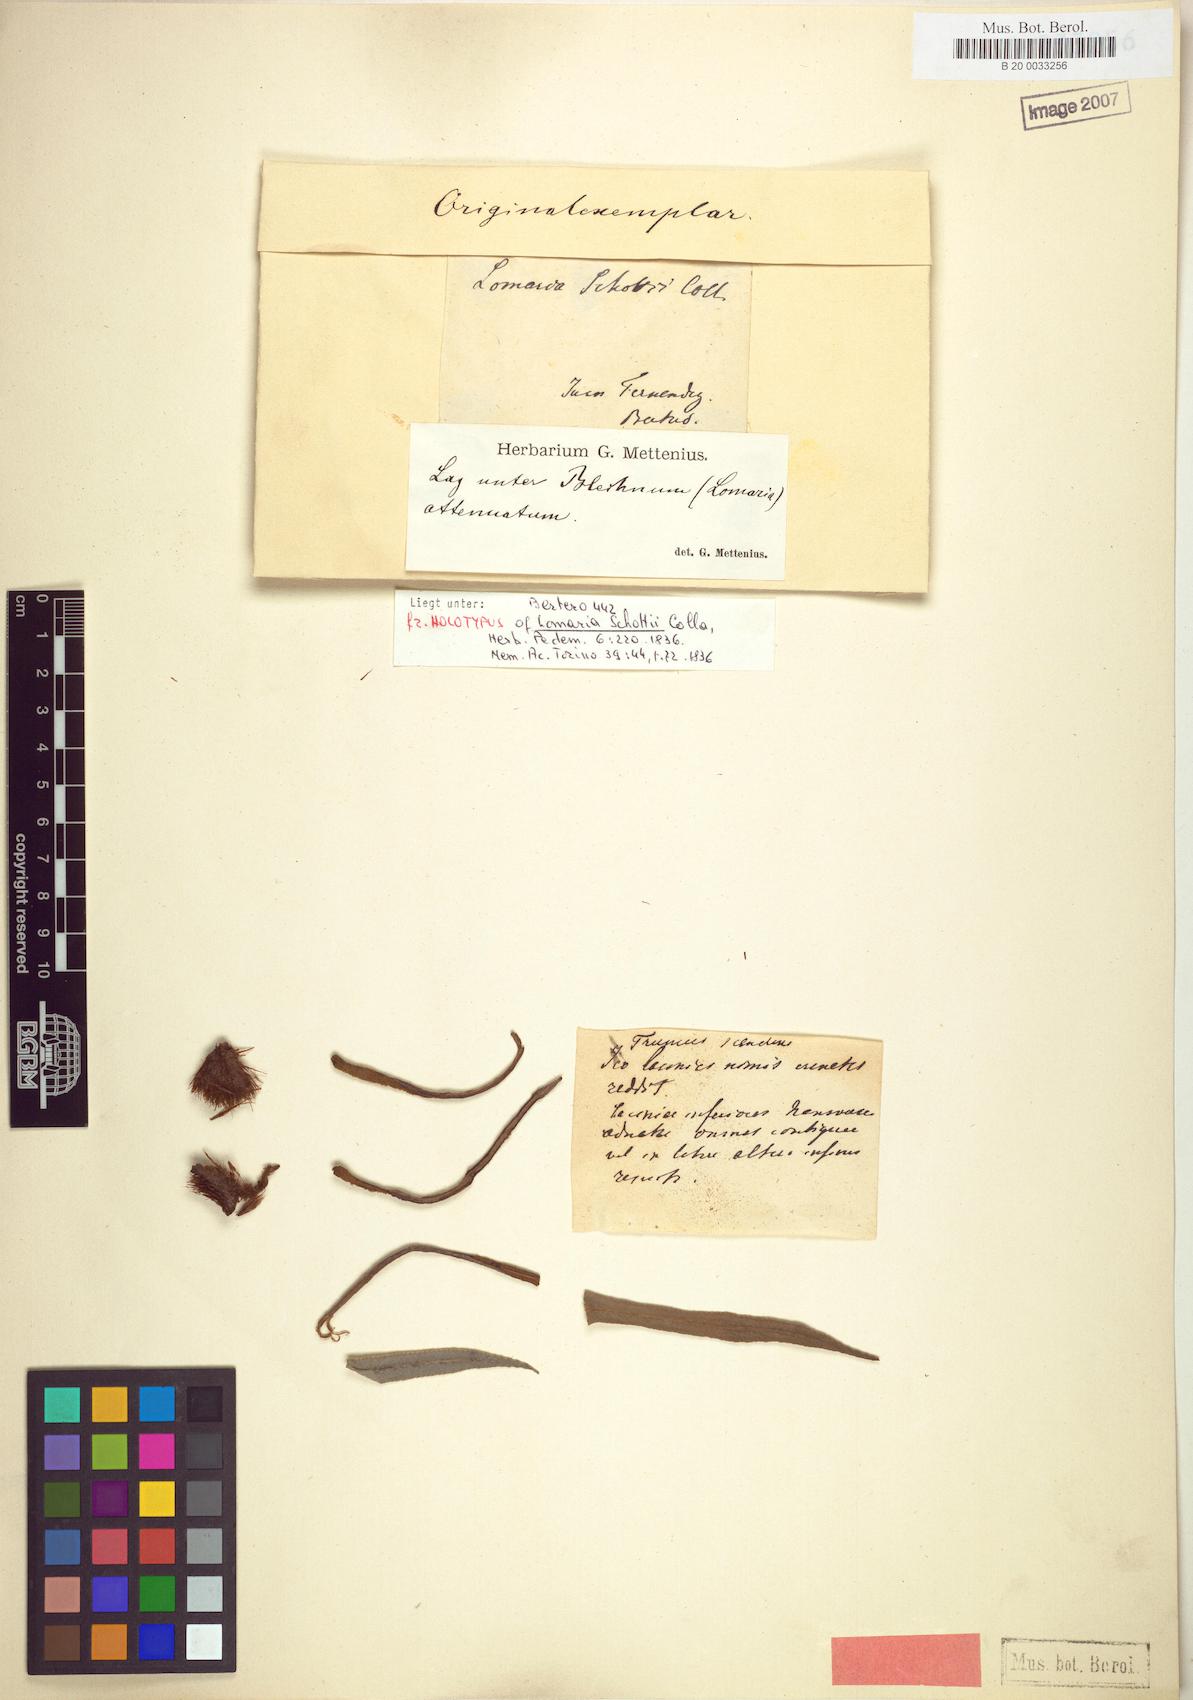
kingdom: Plantae
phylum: Tracheophyta
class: Polypodiopsida
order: Polypodiales
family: Blechnaceae
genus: Lomaridium
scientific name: Lomaridium schottii
